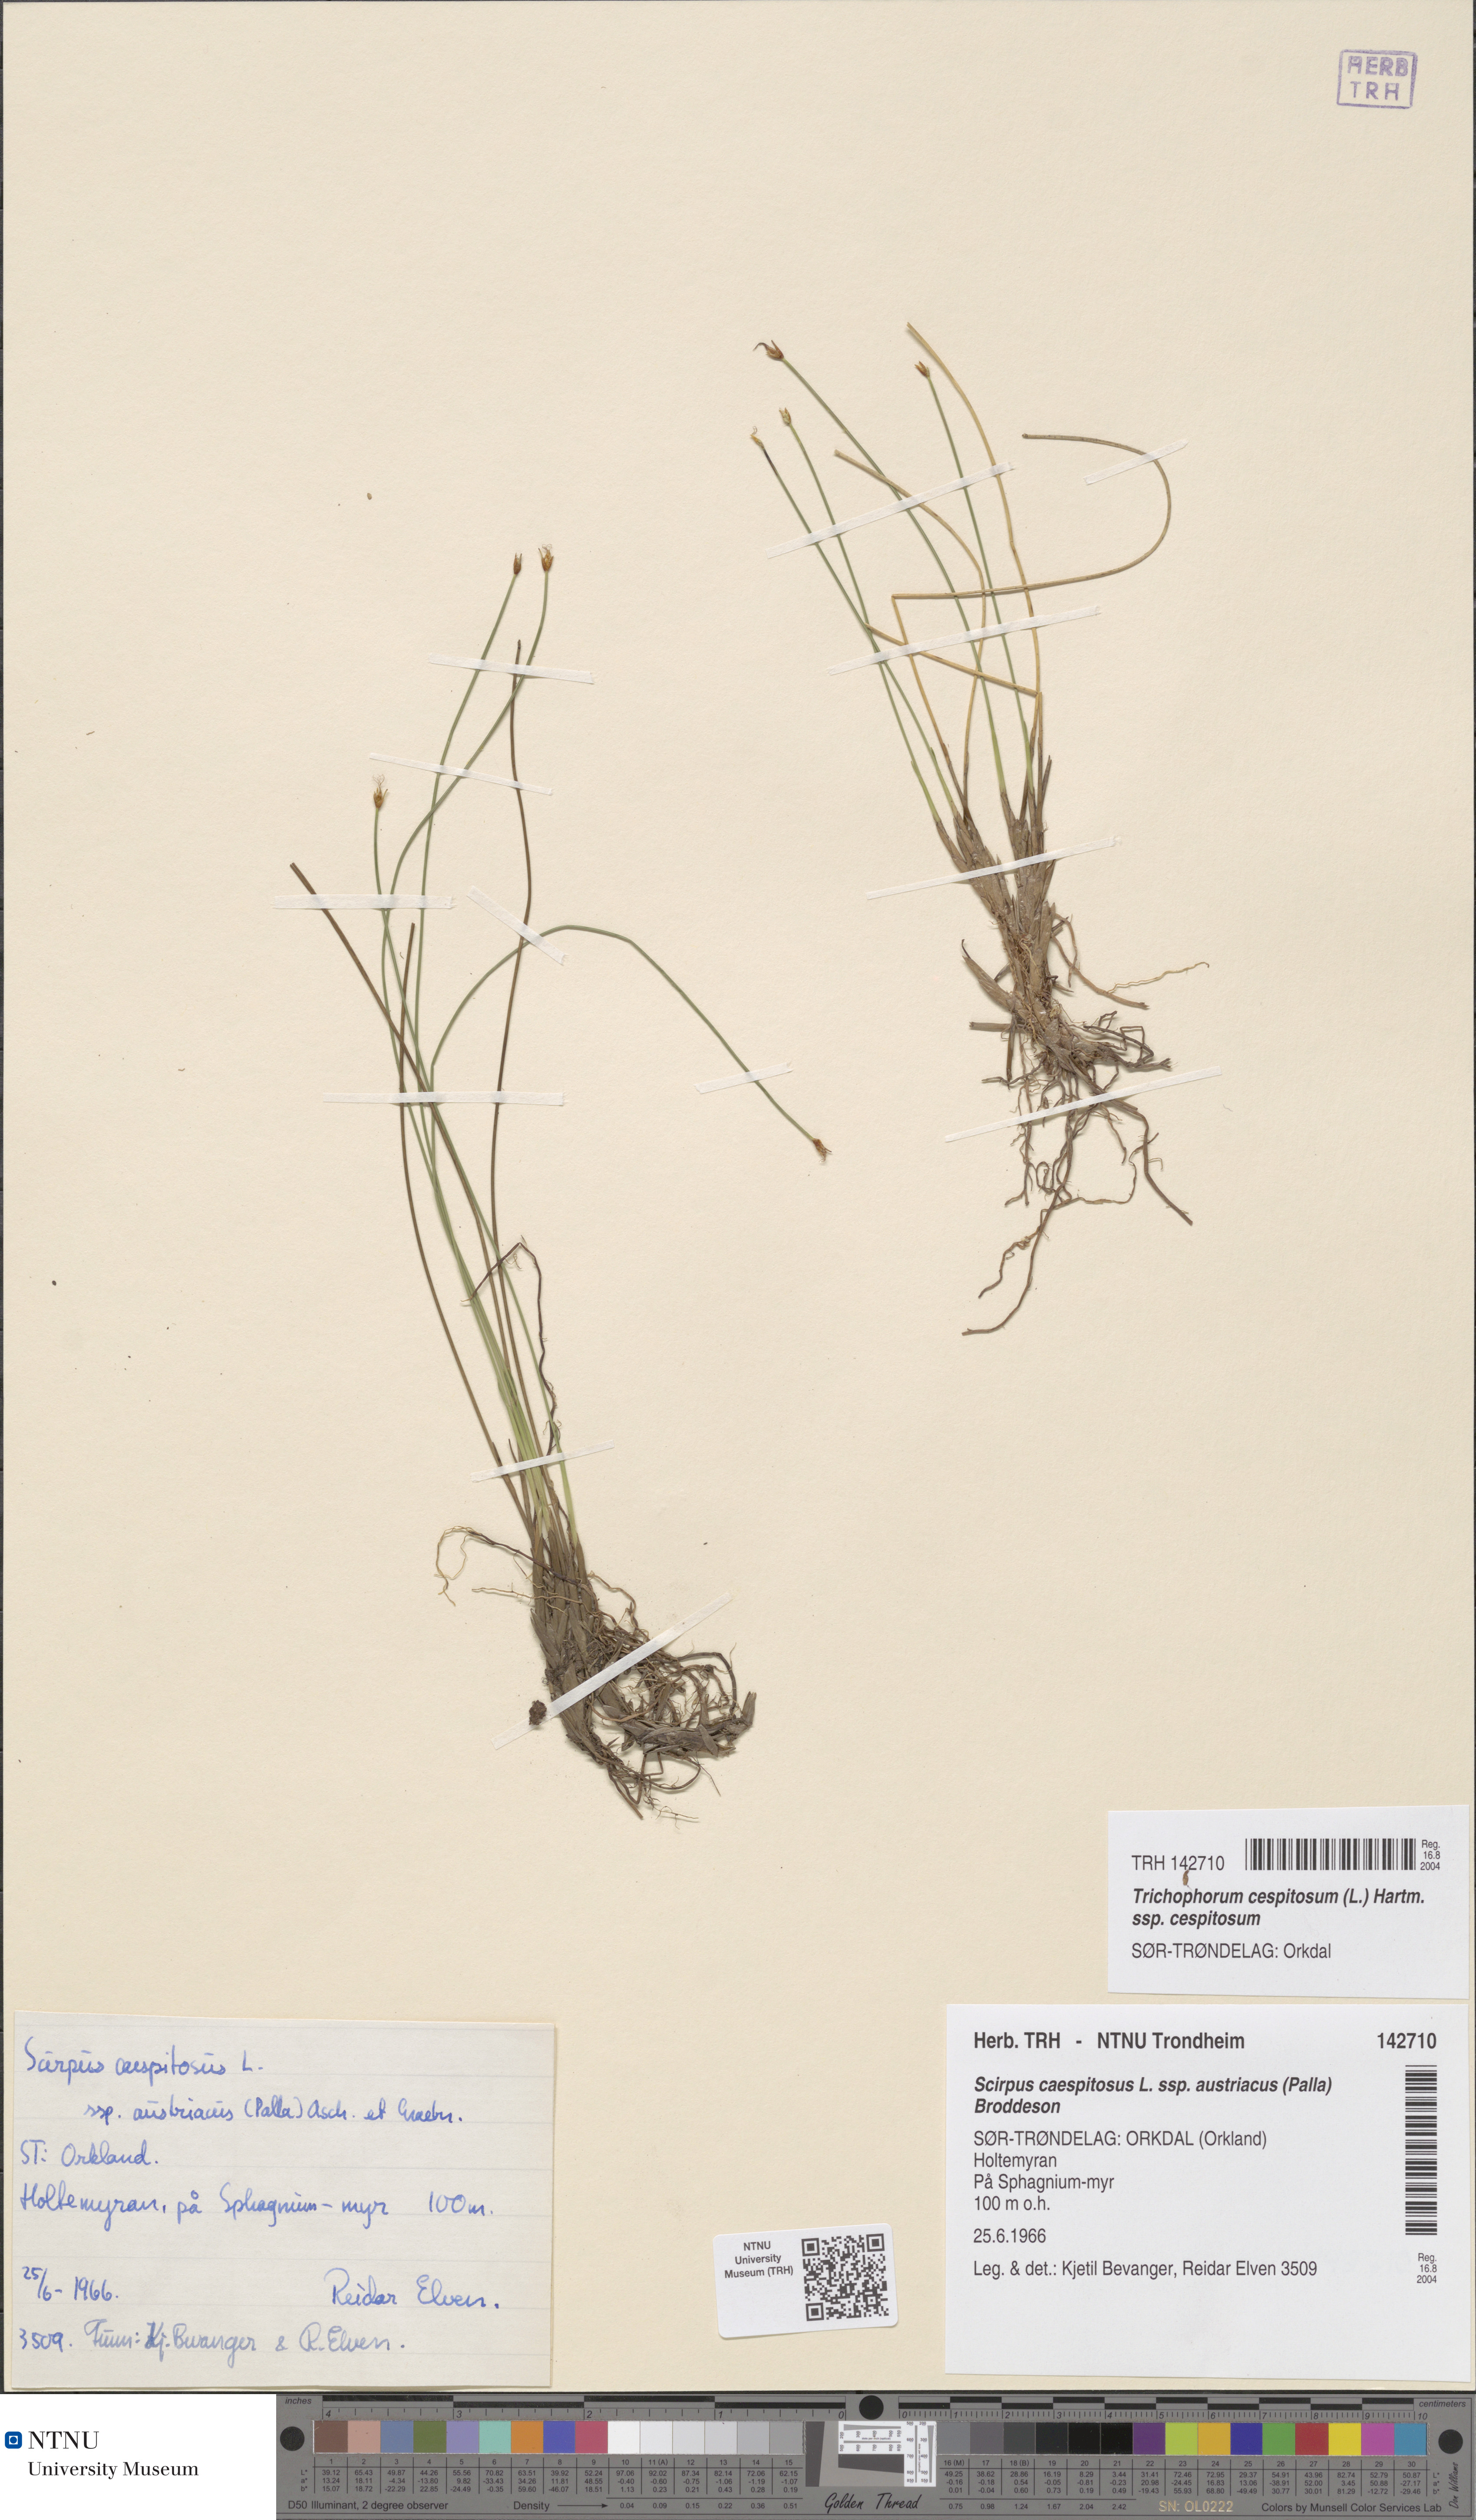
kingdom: Plantae
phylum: Tracheophyta
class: Liliopsida
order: Poales
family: Cyperaceae
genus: Trichophorum
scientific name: Trichophorum cespitosum
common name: Cespitose bulrush
